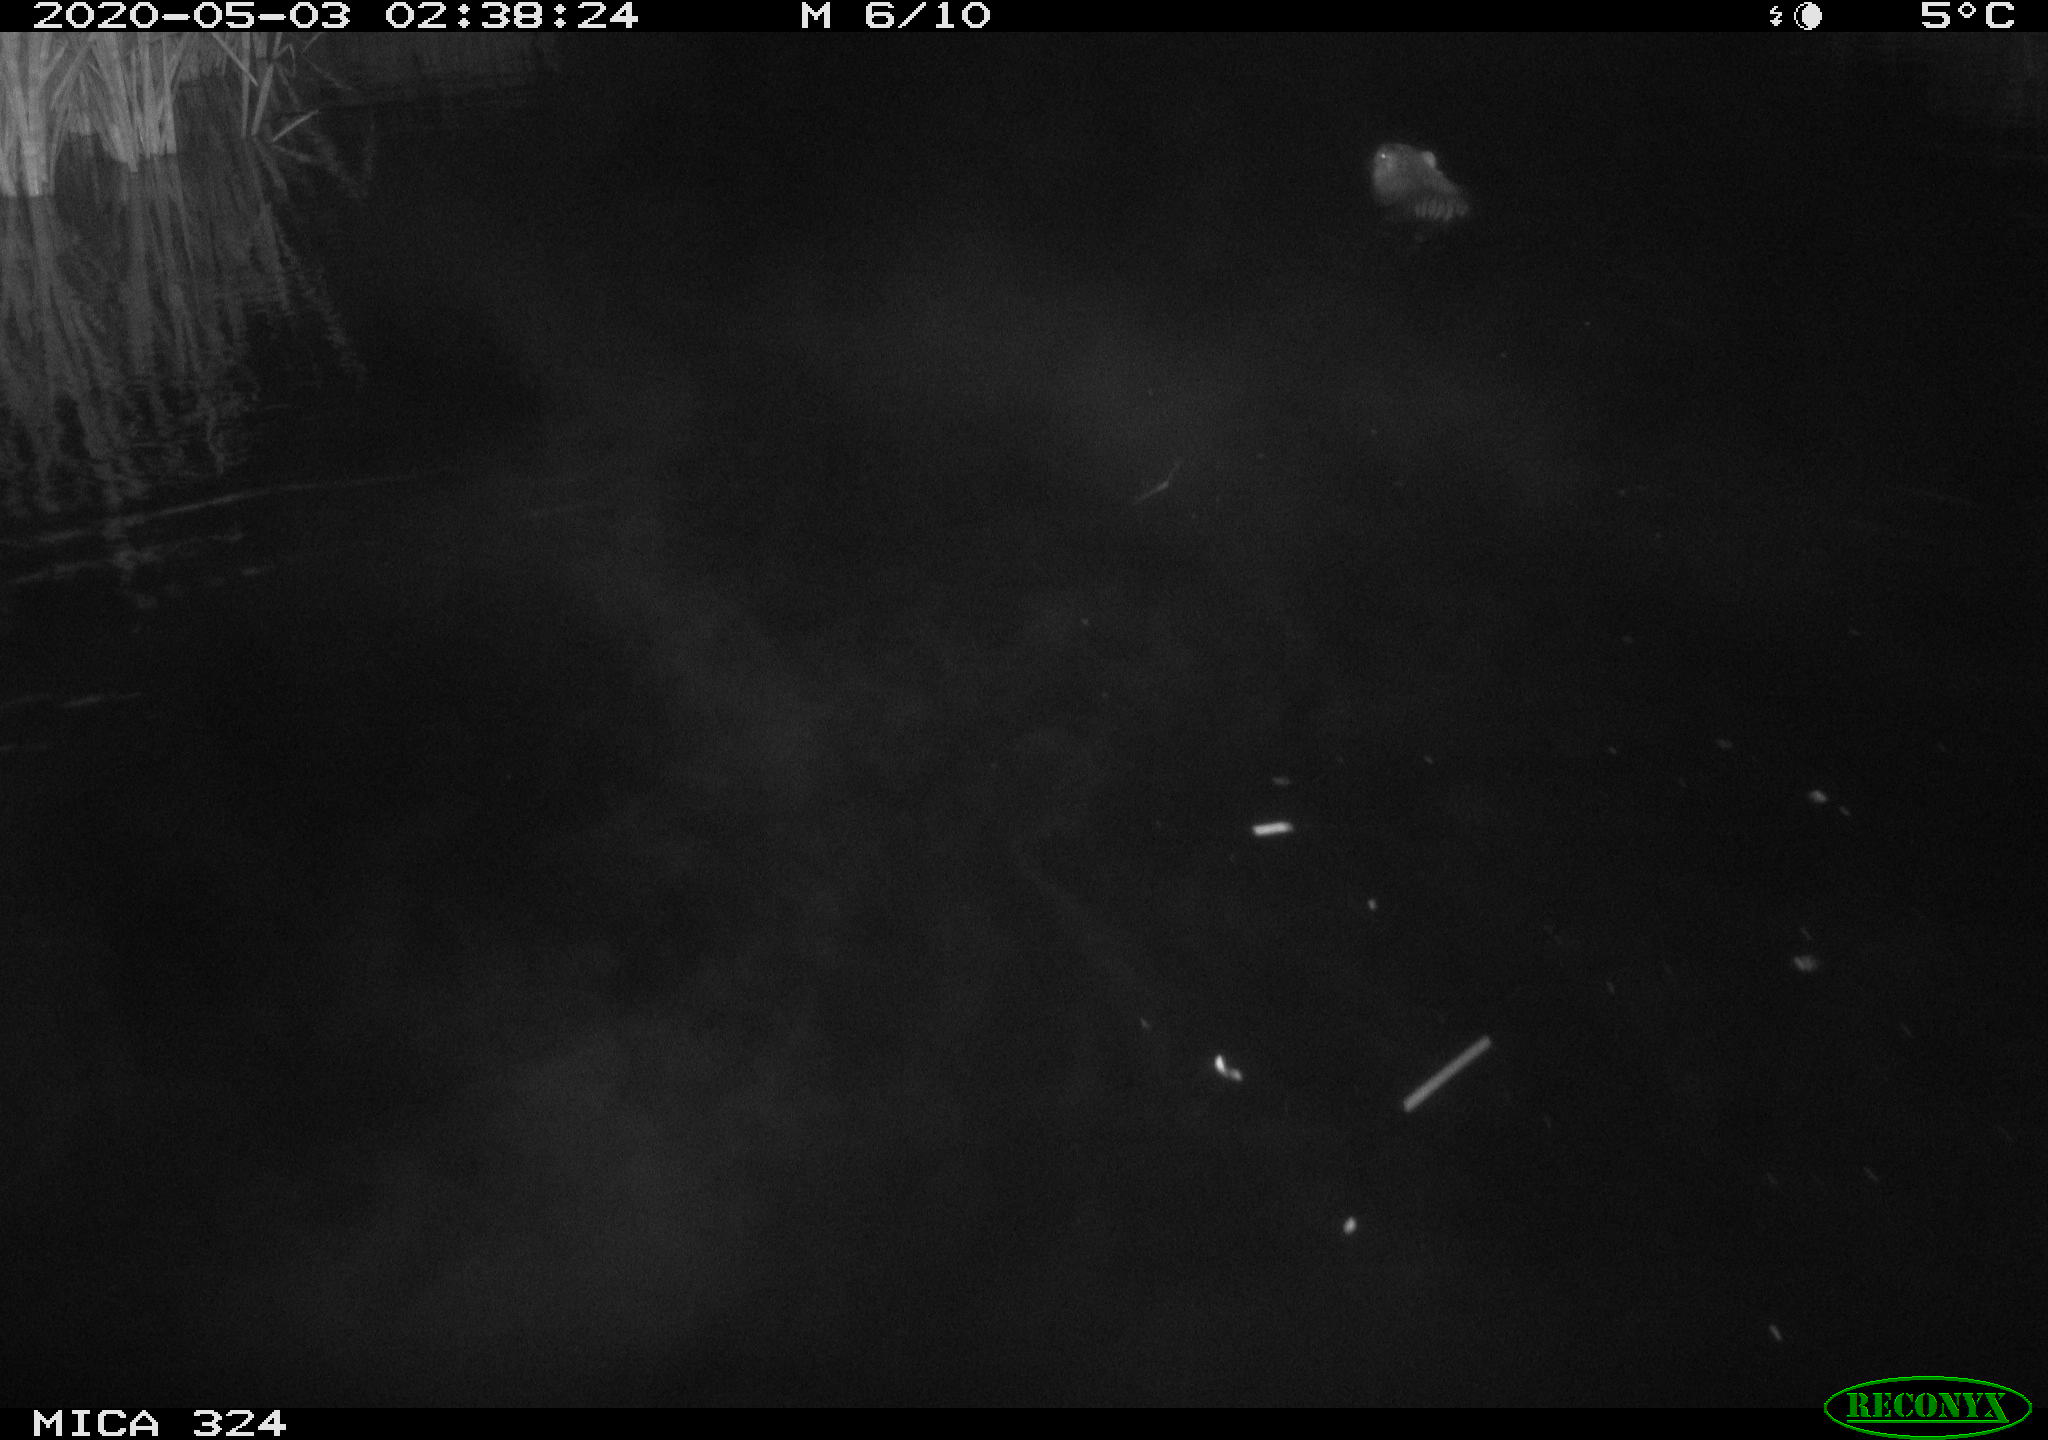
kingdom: Animalia
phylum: Chordata
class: Mammalia
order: Rodentia
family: Myocastoridae
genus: Myocastor
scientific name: Myocastor coypus
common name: Coypu
